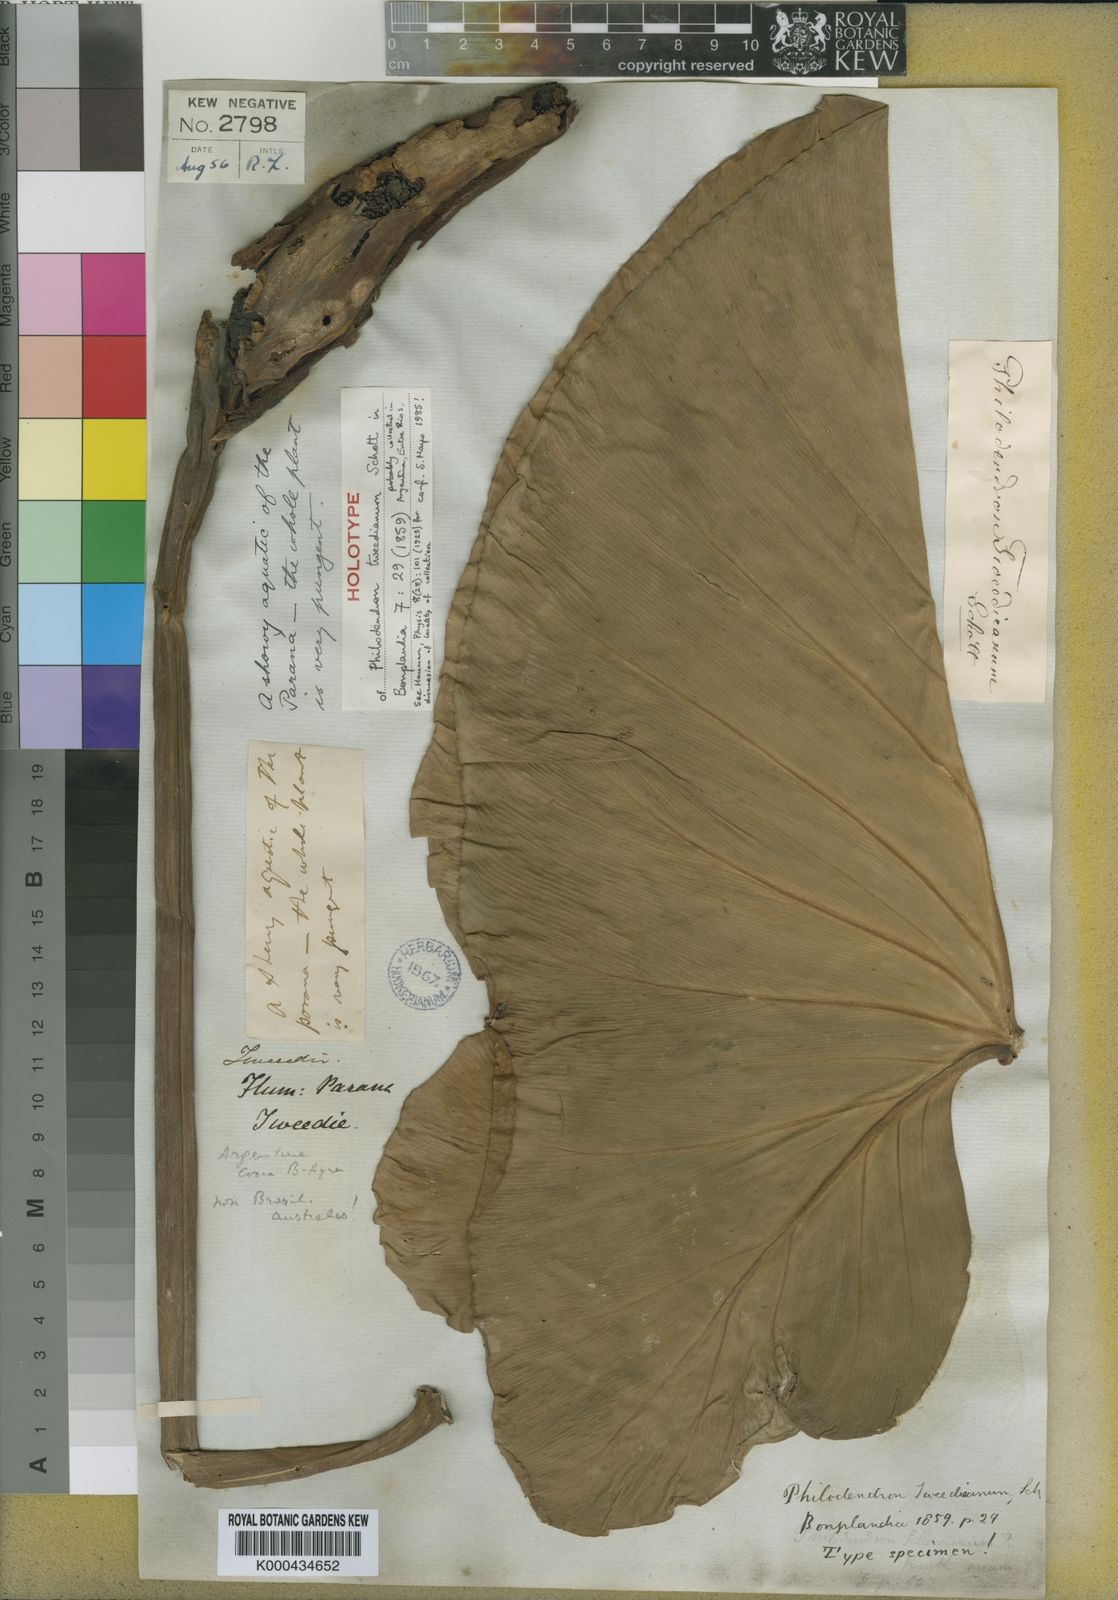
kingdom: Plantae
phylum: Tracheophyta
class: Liliopsida
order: Alismatales
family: Araceae
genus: Thaumatophyllum
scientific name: Thaumatophyllum tweedieanum
